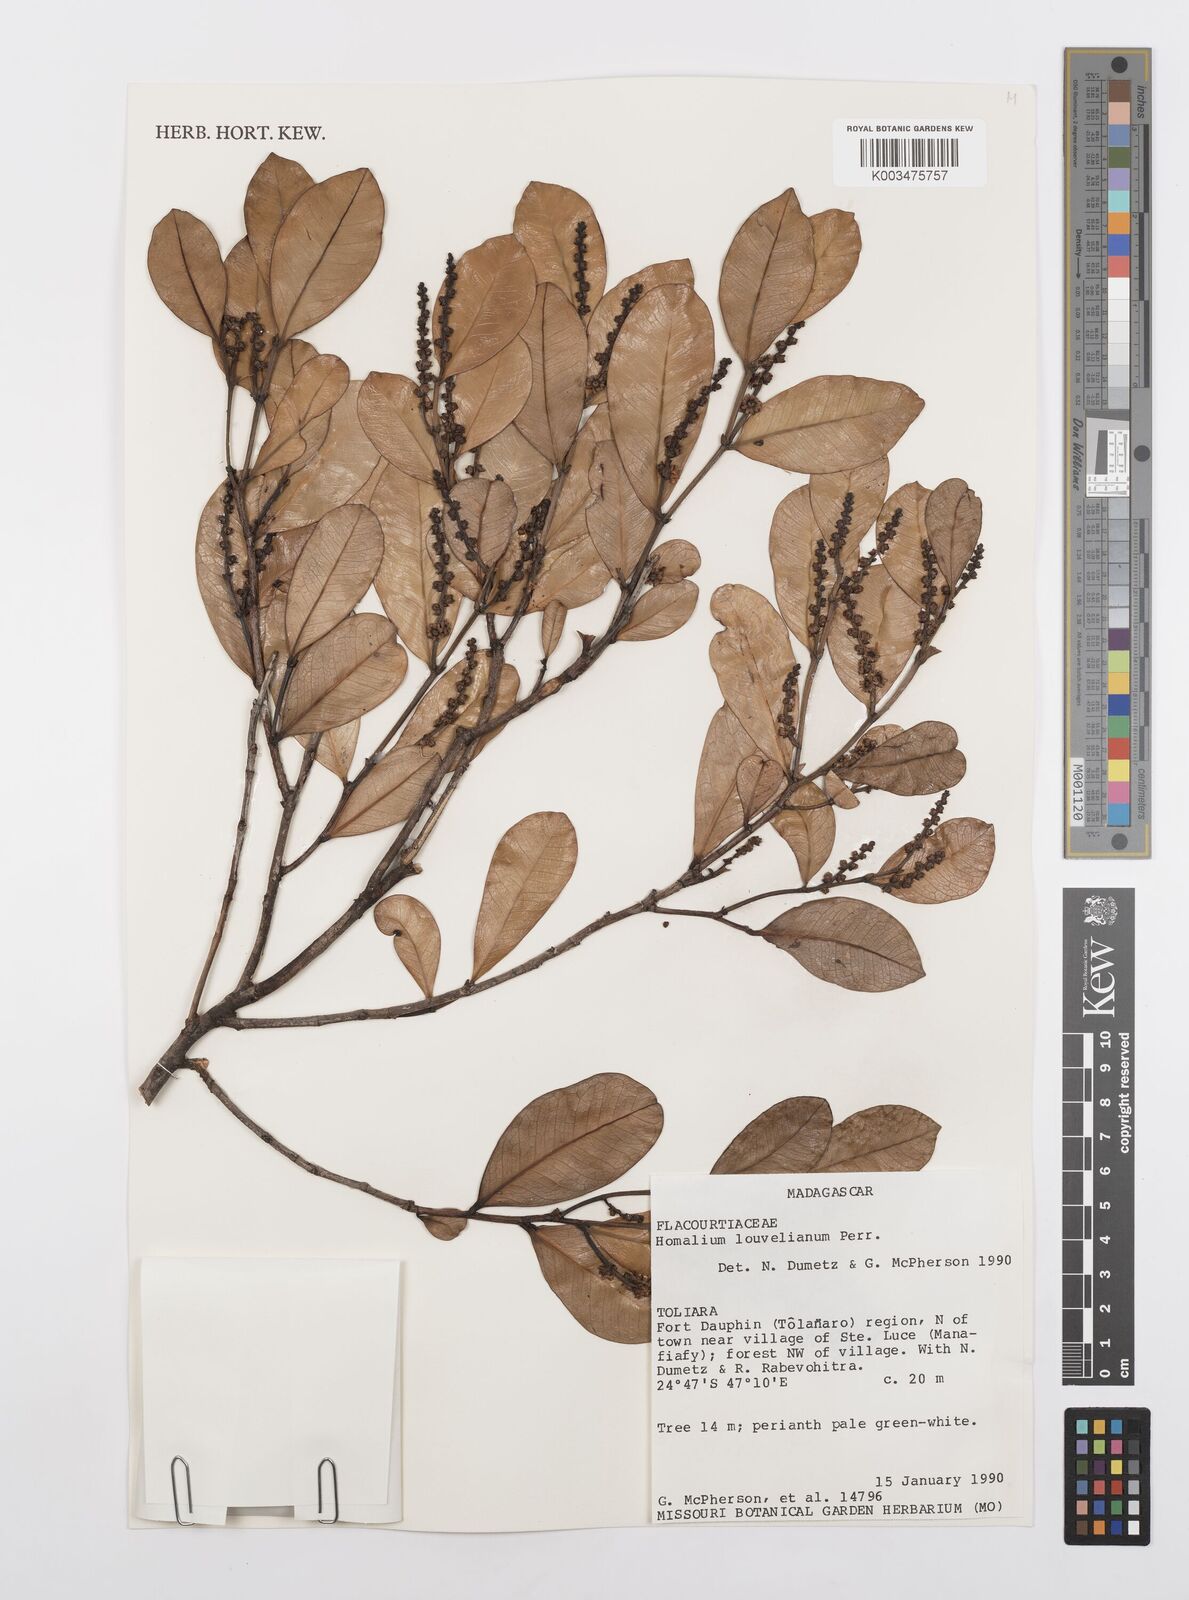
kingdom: Plantae
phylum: Tracheophyta
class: Magnoliopsida
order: Malpighiales
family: Salicaceae
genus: Homalium
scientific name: Homalium louvelianum
